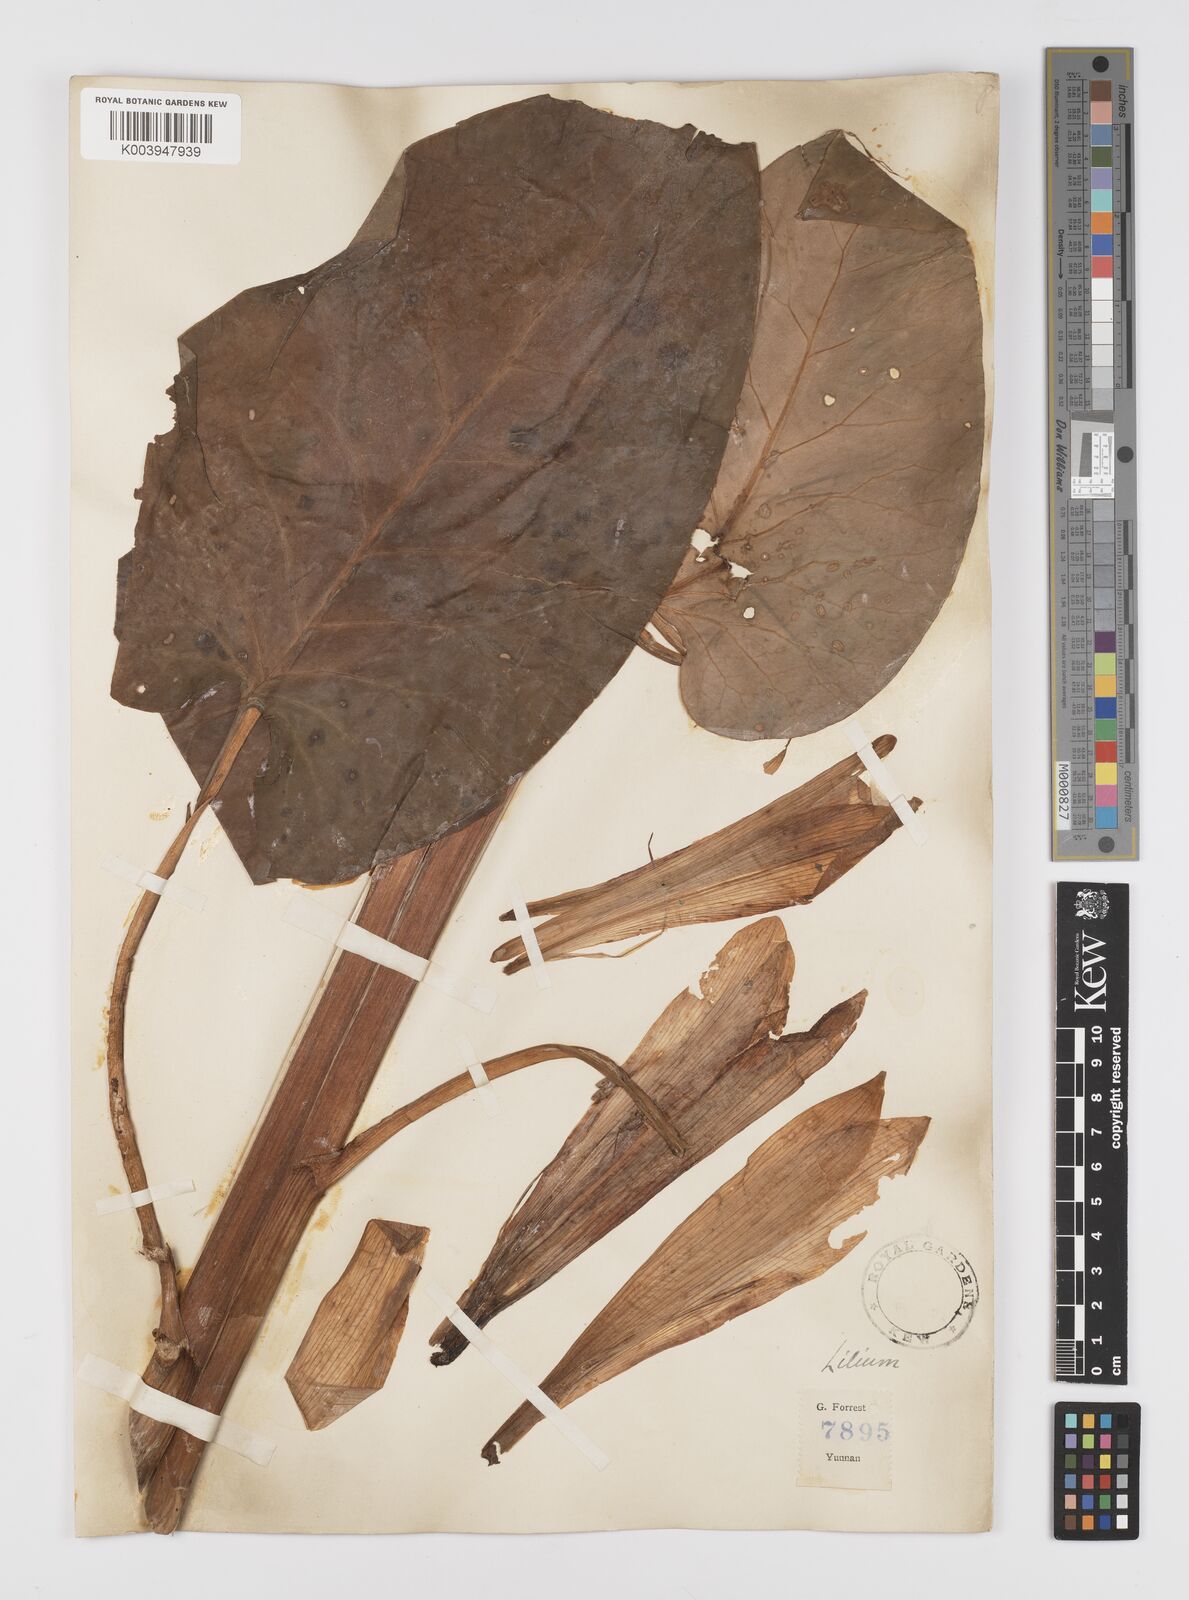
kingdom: Plantae
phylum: Tracheophyta
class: Liliopsida
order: Liliales
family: Liliaceae
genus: Cardiocrinum
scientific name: Cardiocrinum giganteum
